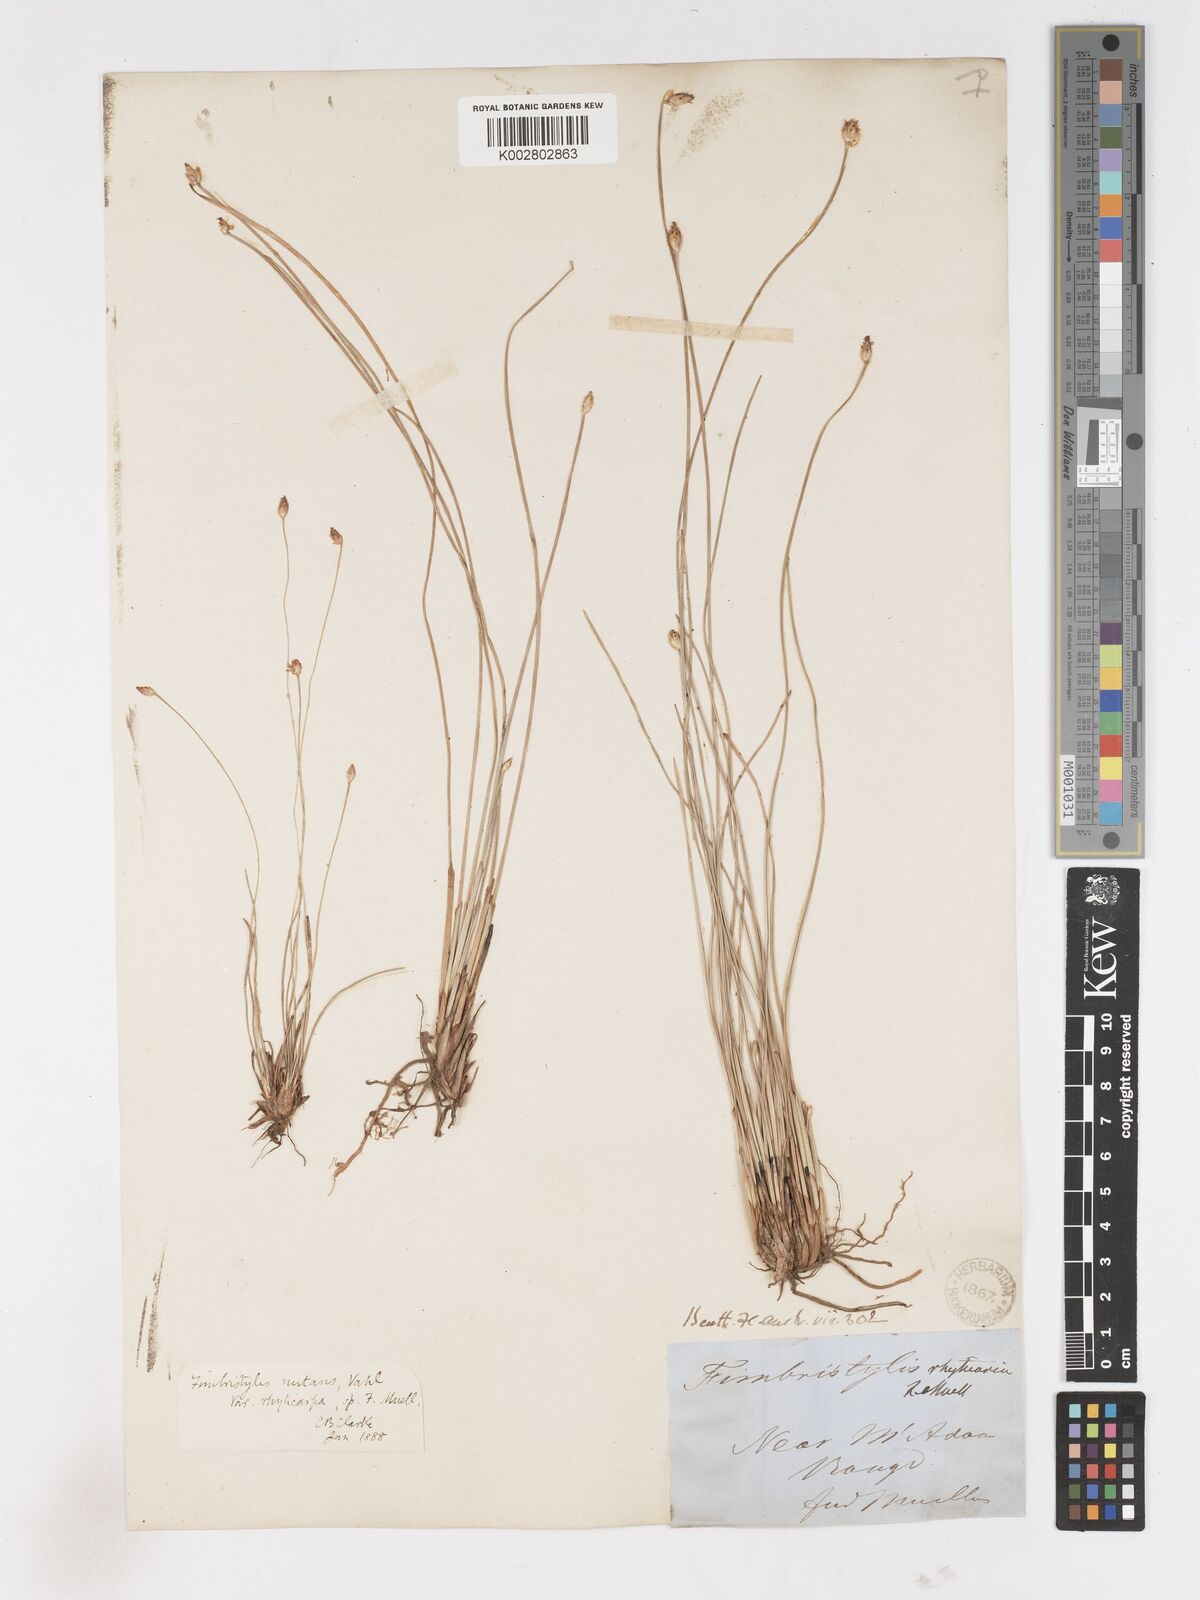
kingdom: Plantae
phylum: Tracheophyta
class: Liliopsida
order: Poales
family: Cyperaceae
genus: Fimbristylis
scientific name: Fimbristylis rhyticarya
